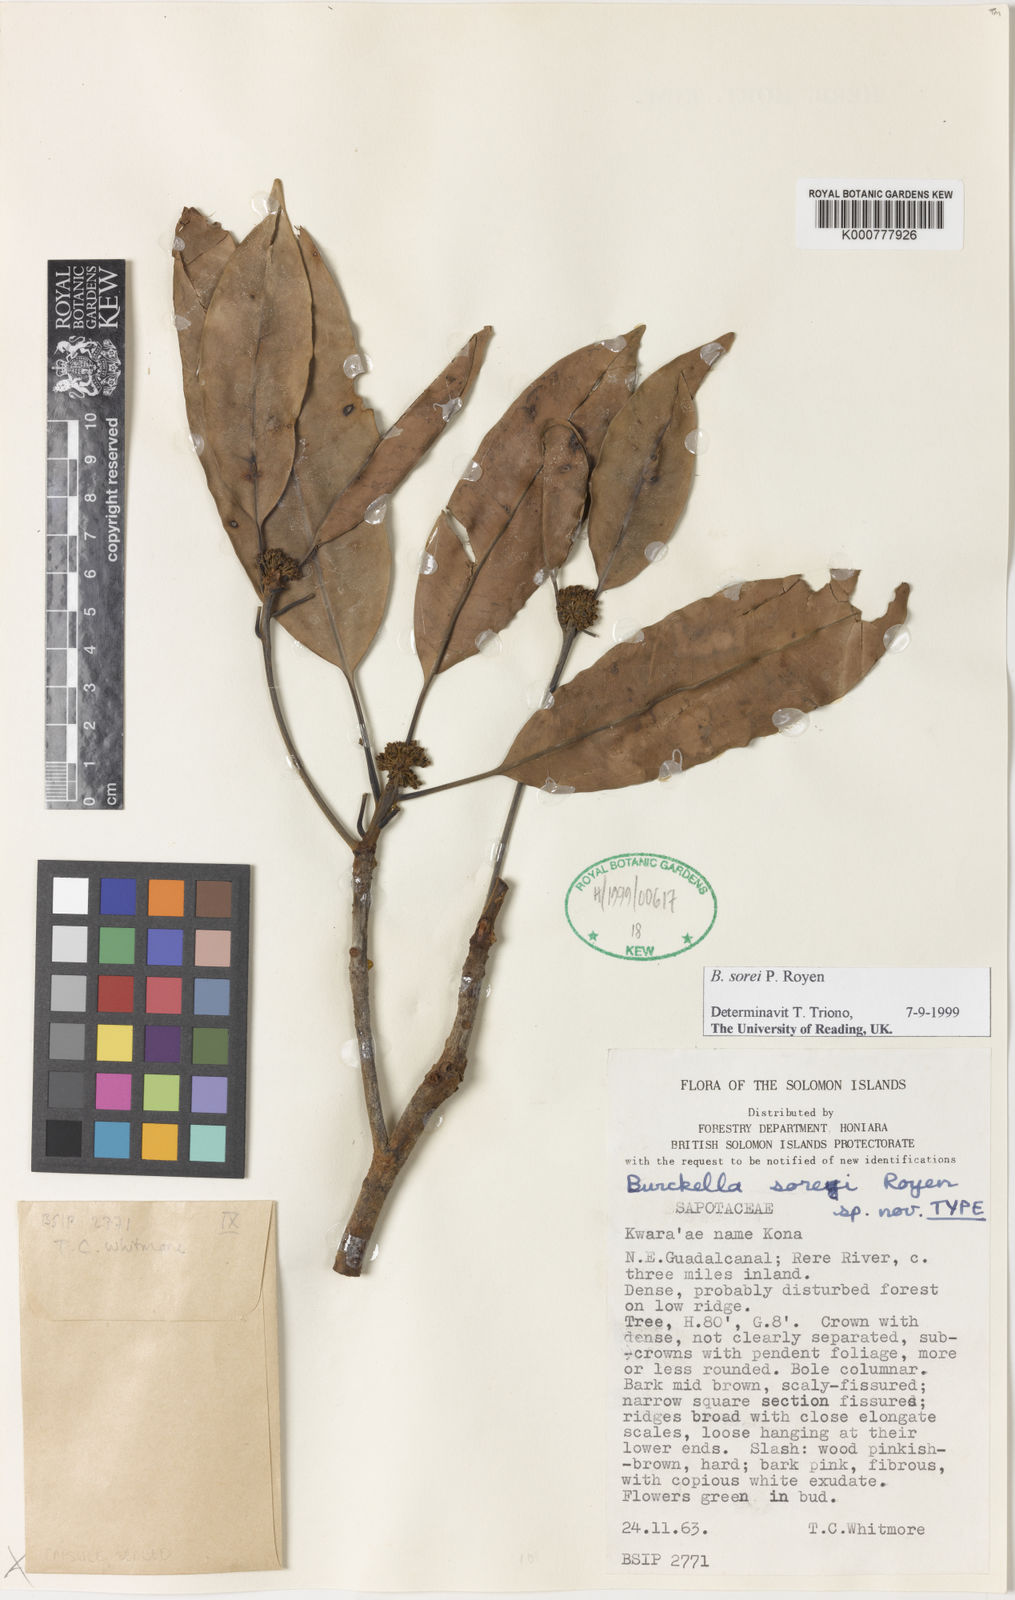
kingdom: Plantae
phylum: Tracheophyta
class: Magnoliopsida
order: Ericales
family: Sapotaceae
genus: Burckella
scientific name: Burckella sorei
